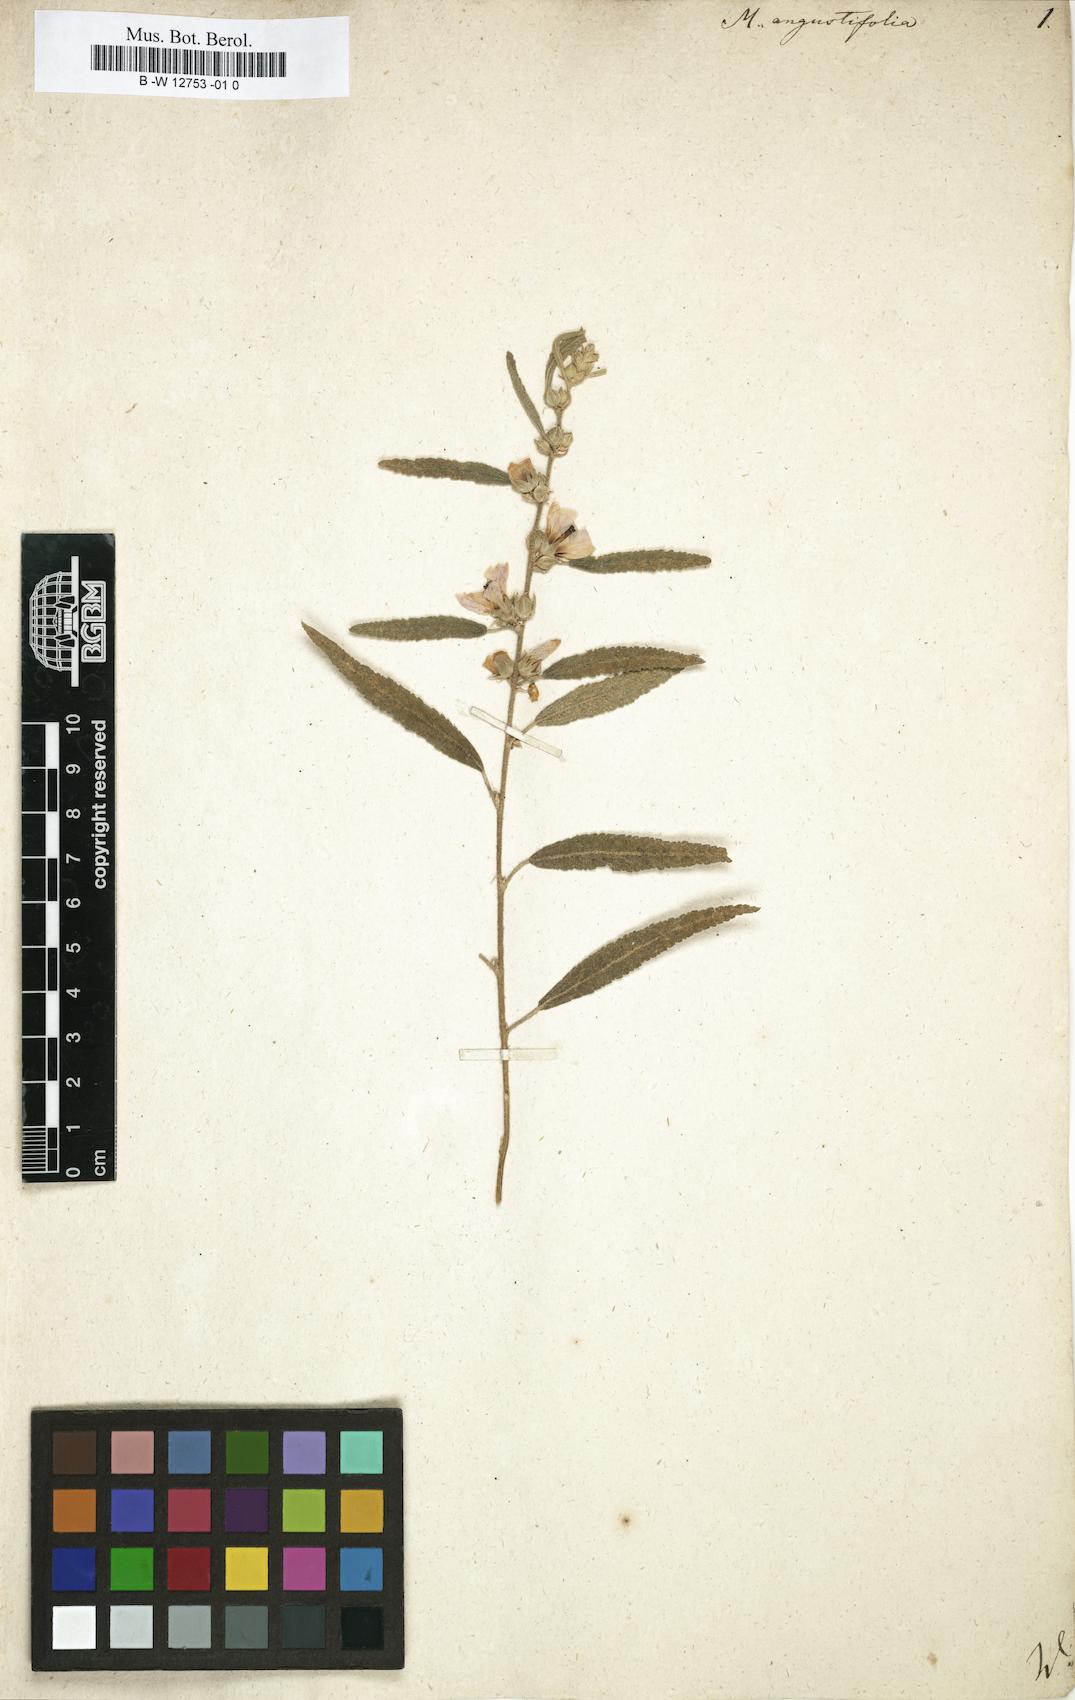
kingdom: Plantae
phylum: Tracheophyta
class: Magnoliopsida
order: Malvales
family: Malvaceae
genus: Sphaeralcea
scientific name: Sphaeralcea angustifolia
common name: Copper globe-mallow
